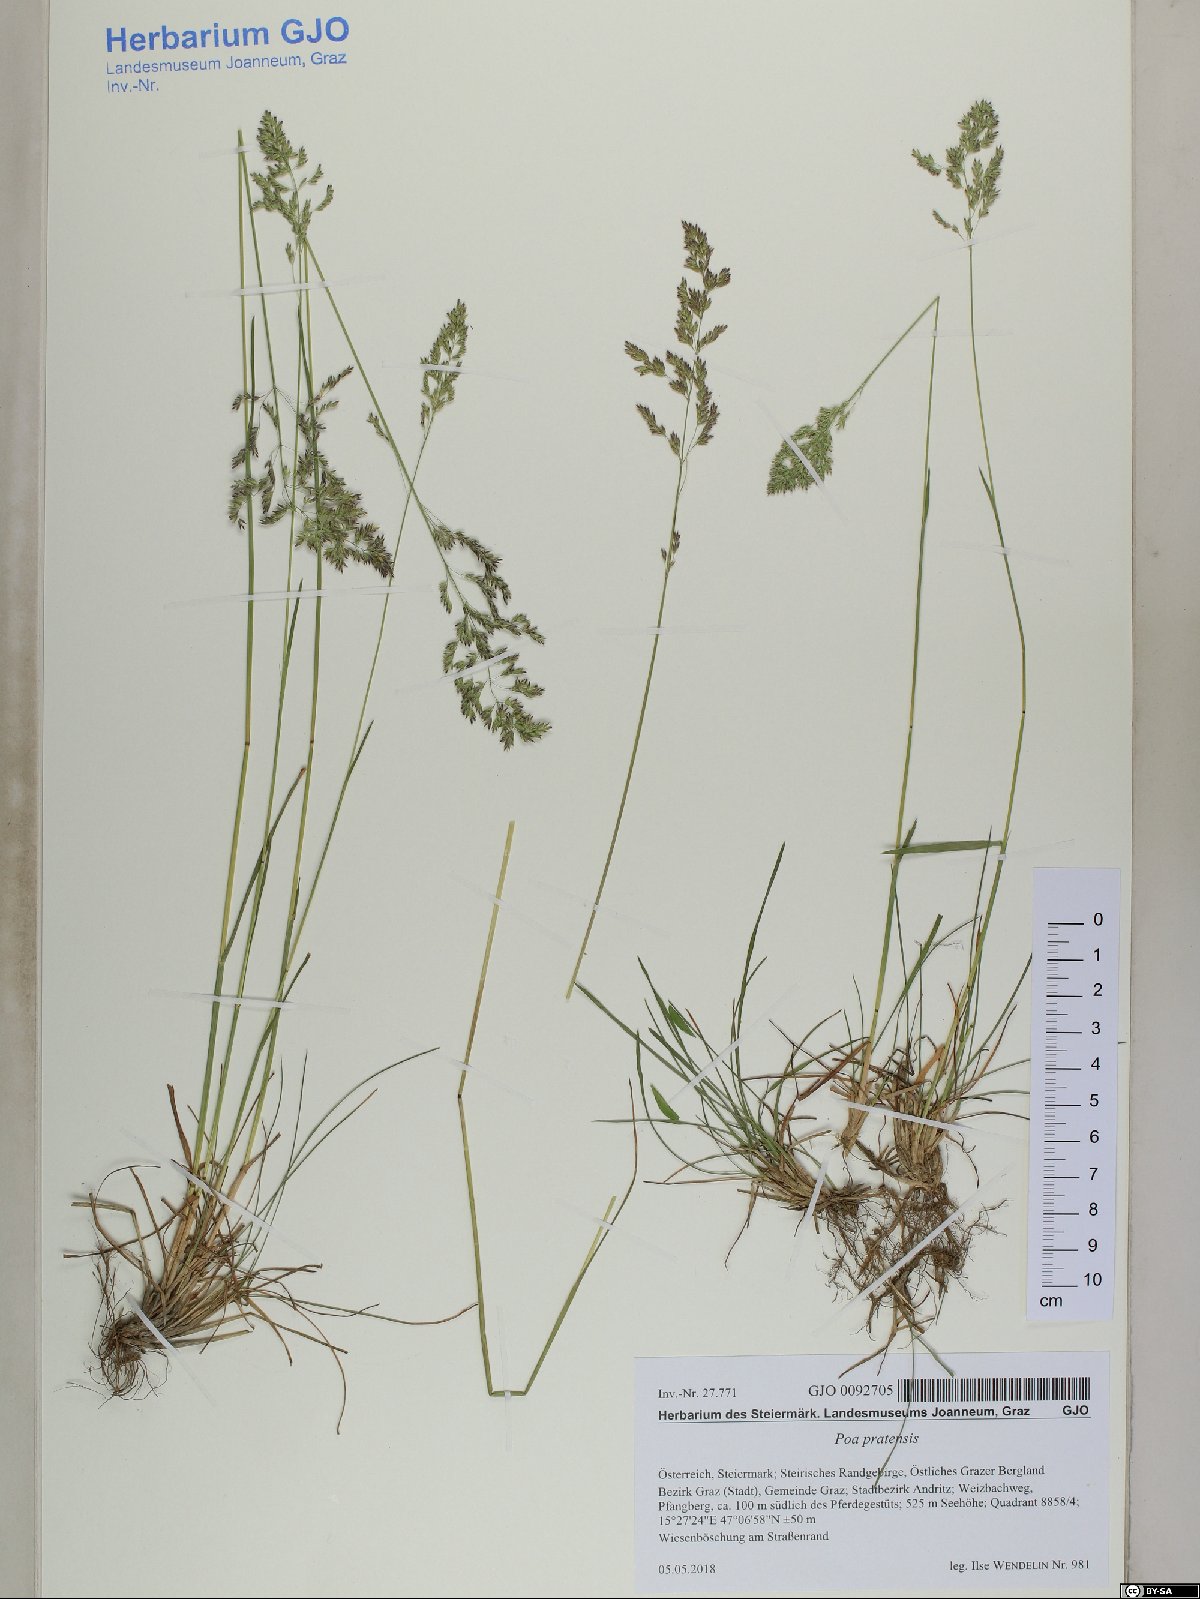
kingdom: Plantae
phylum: Tracheophyta
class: Liliopsida
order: Poales
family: Poaceae
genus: Poa
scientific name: Poa pratensis
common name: Kentucky bluegrass
